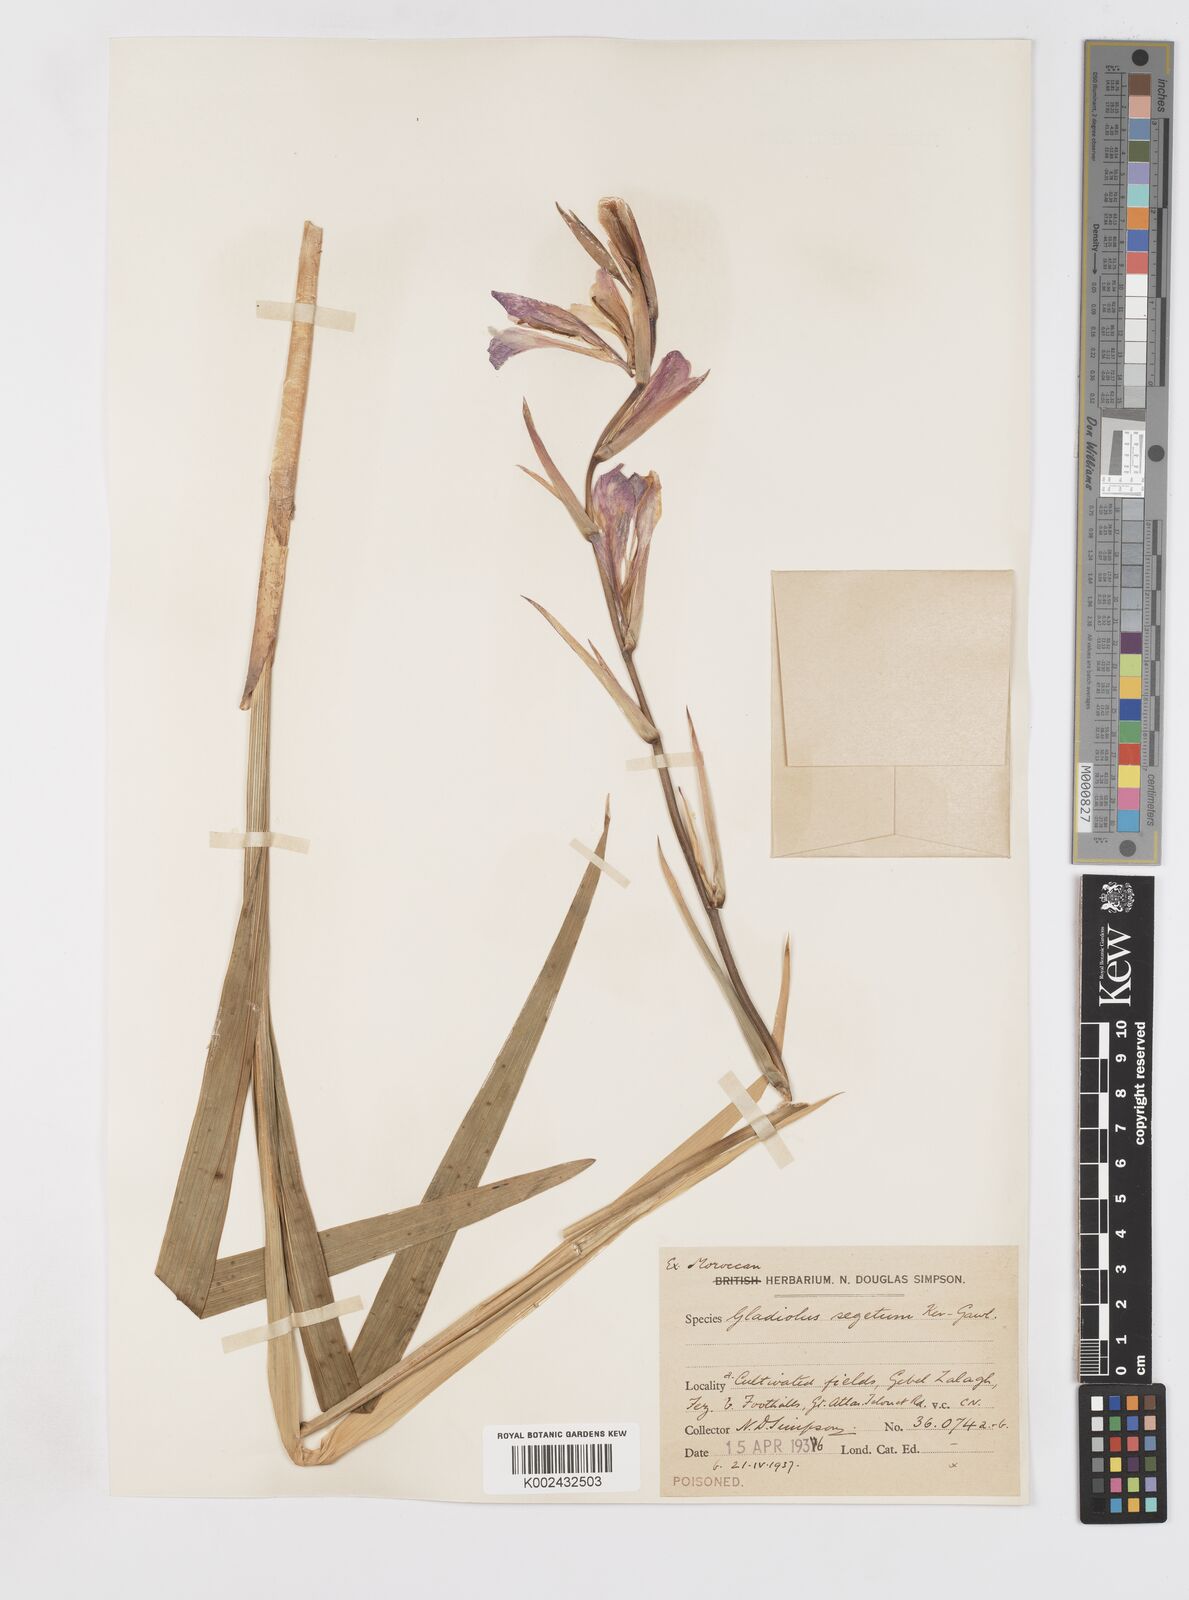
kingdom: Plantae
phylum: Tracheophyta
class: Liliopsida
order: Asparagales
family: Iridaceae
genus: Gladiolus
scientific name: Gladiolus italicus
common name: Field gladiolus
